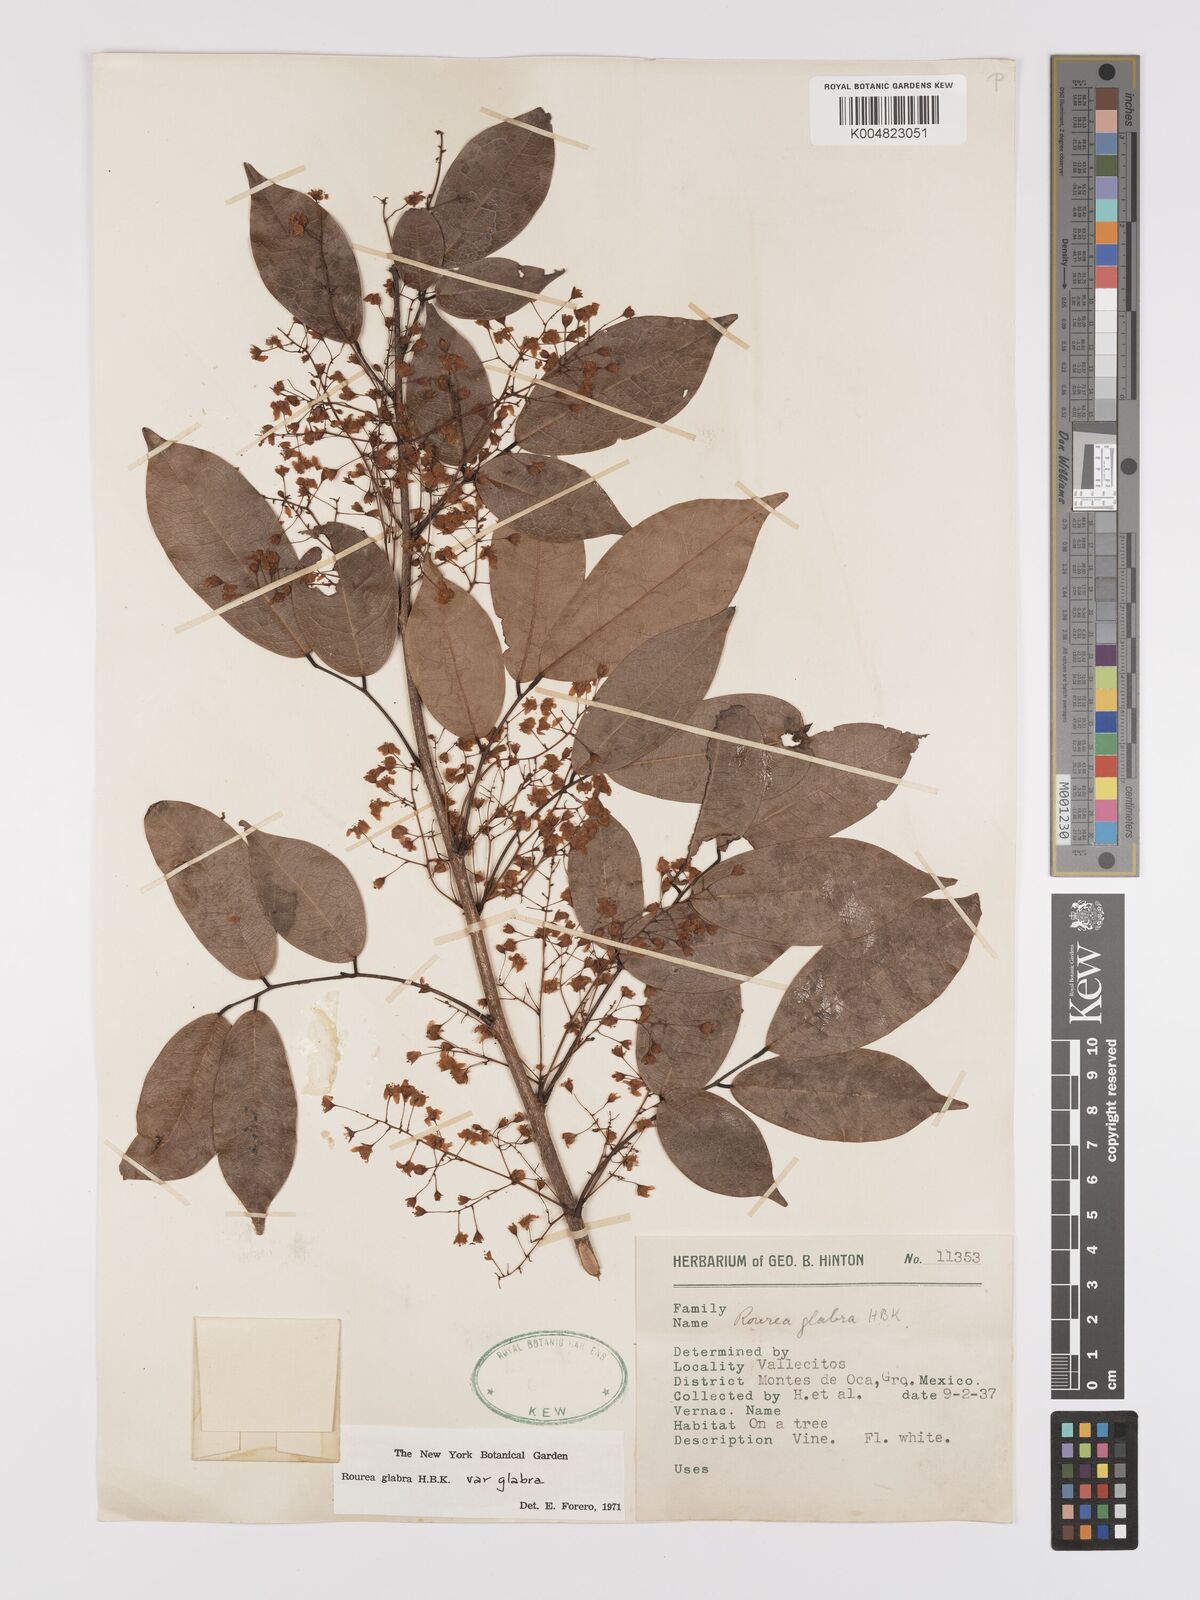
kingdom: Plantae
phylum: Tracheophyta
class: Magnoliopsida
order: Oxalidales
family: Connaraceae
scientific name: Connaraceae
